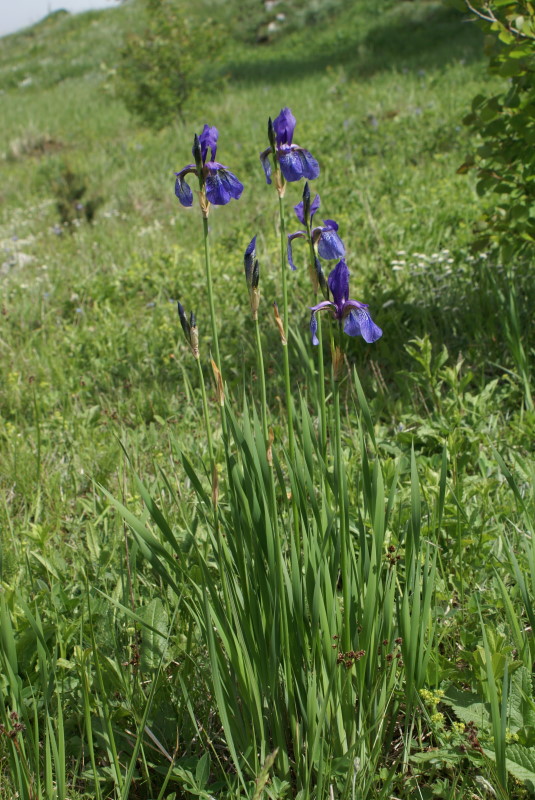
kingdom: Plantae
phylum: Tracheophyta
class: Liliopsida
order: Asparagales
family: Iridaceae
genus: Iris
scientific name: Iris sibirica
